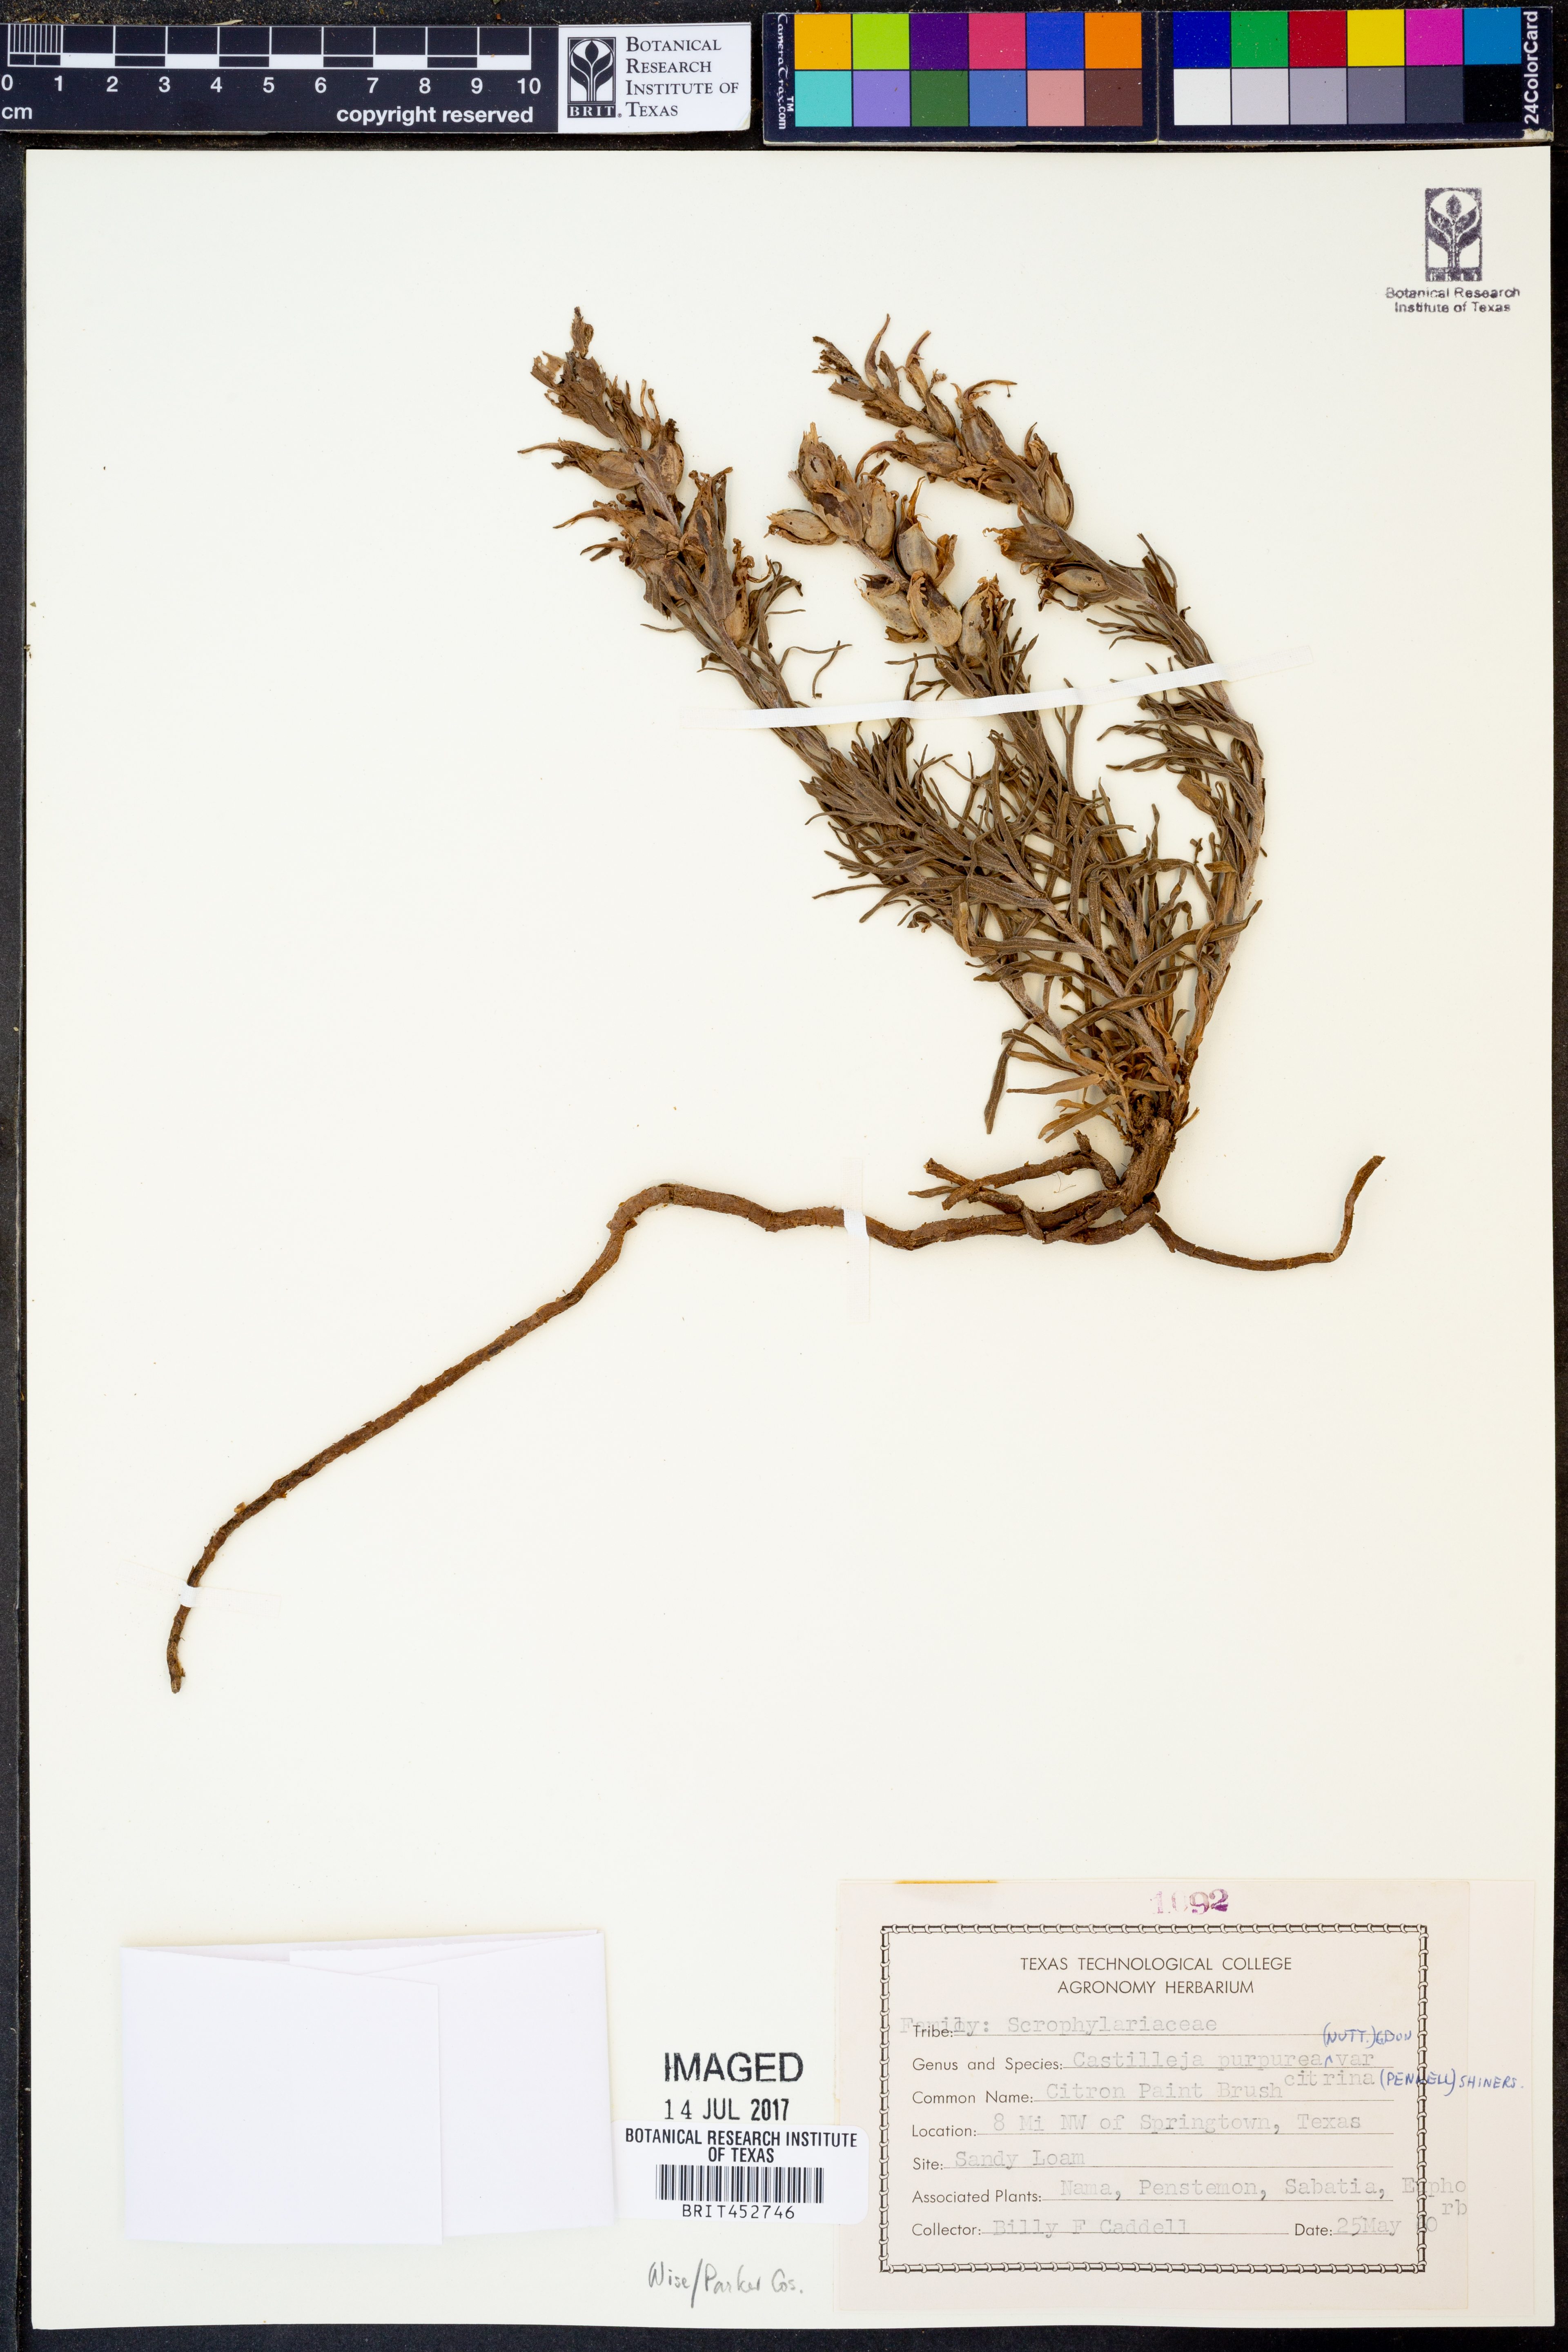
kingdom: Plantae
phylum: Tracheophyta
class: Magnoliopsida
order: Lamiales
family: Orobanchaceae
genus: Castilleja
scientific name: Castilleja citrina
